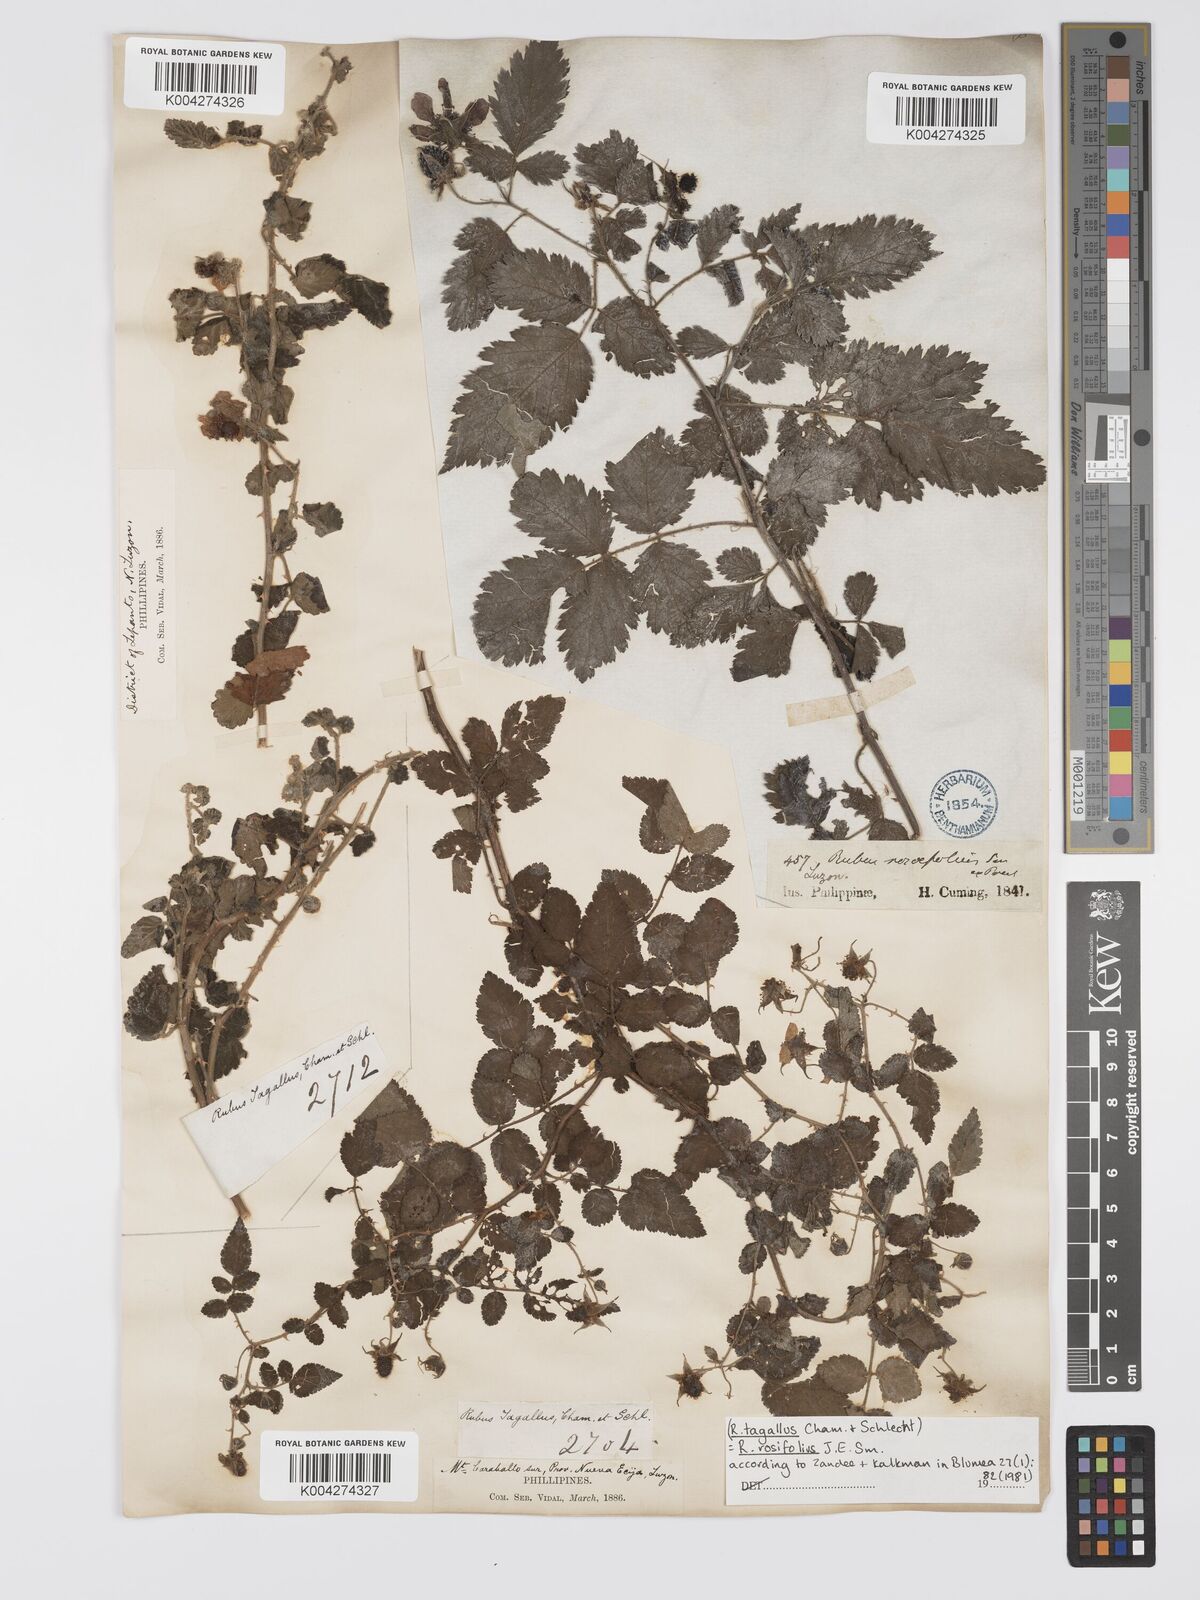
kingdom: Plantae
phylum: Tracheophyta
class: Magnoliopsida
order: Rosales
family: Rosaceae
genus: Rubus
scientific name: Rubus
